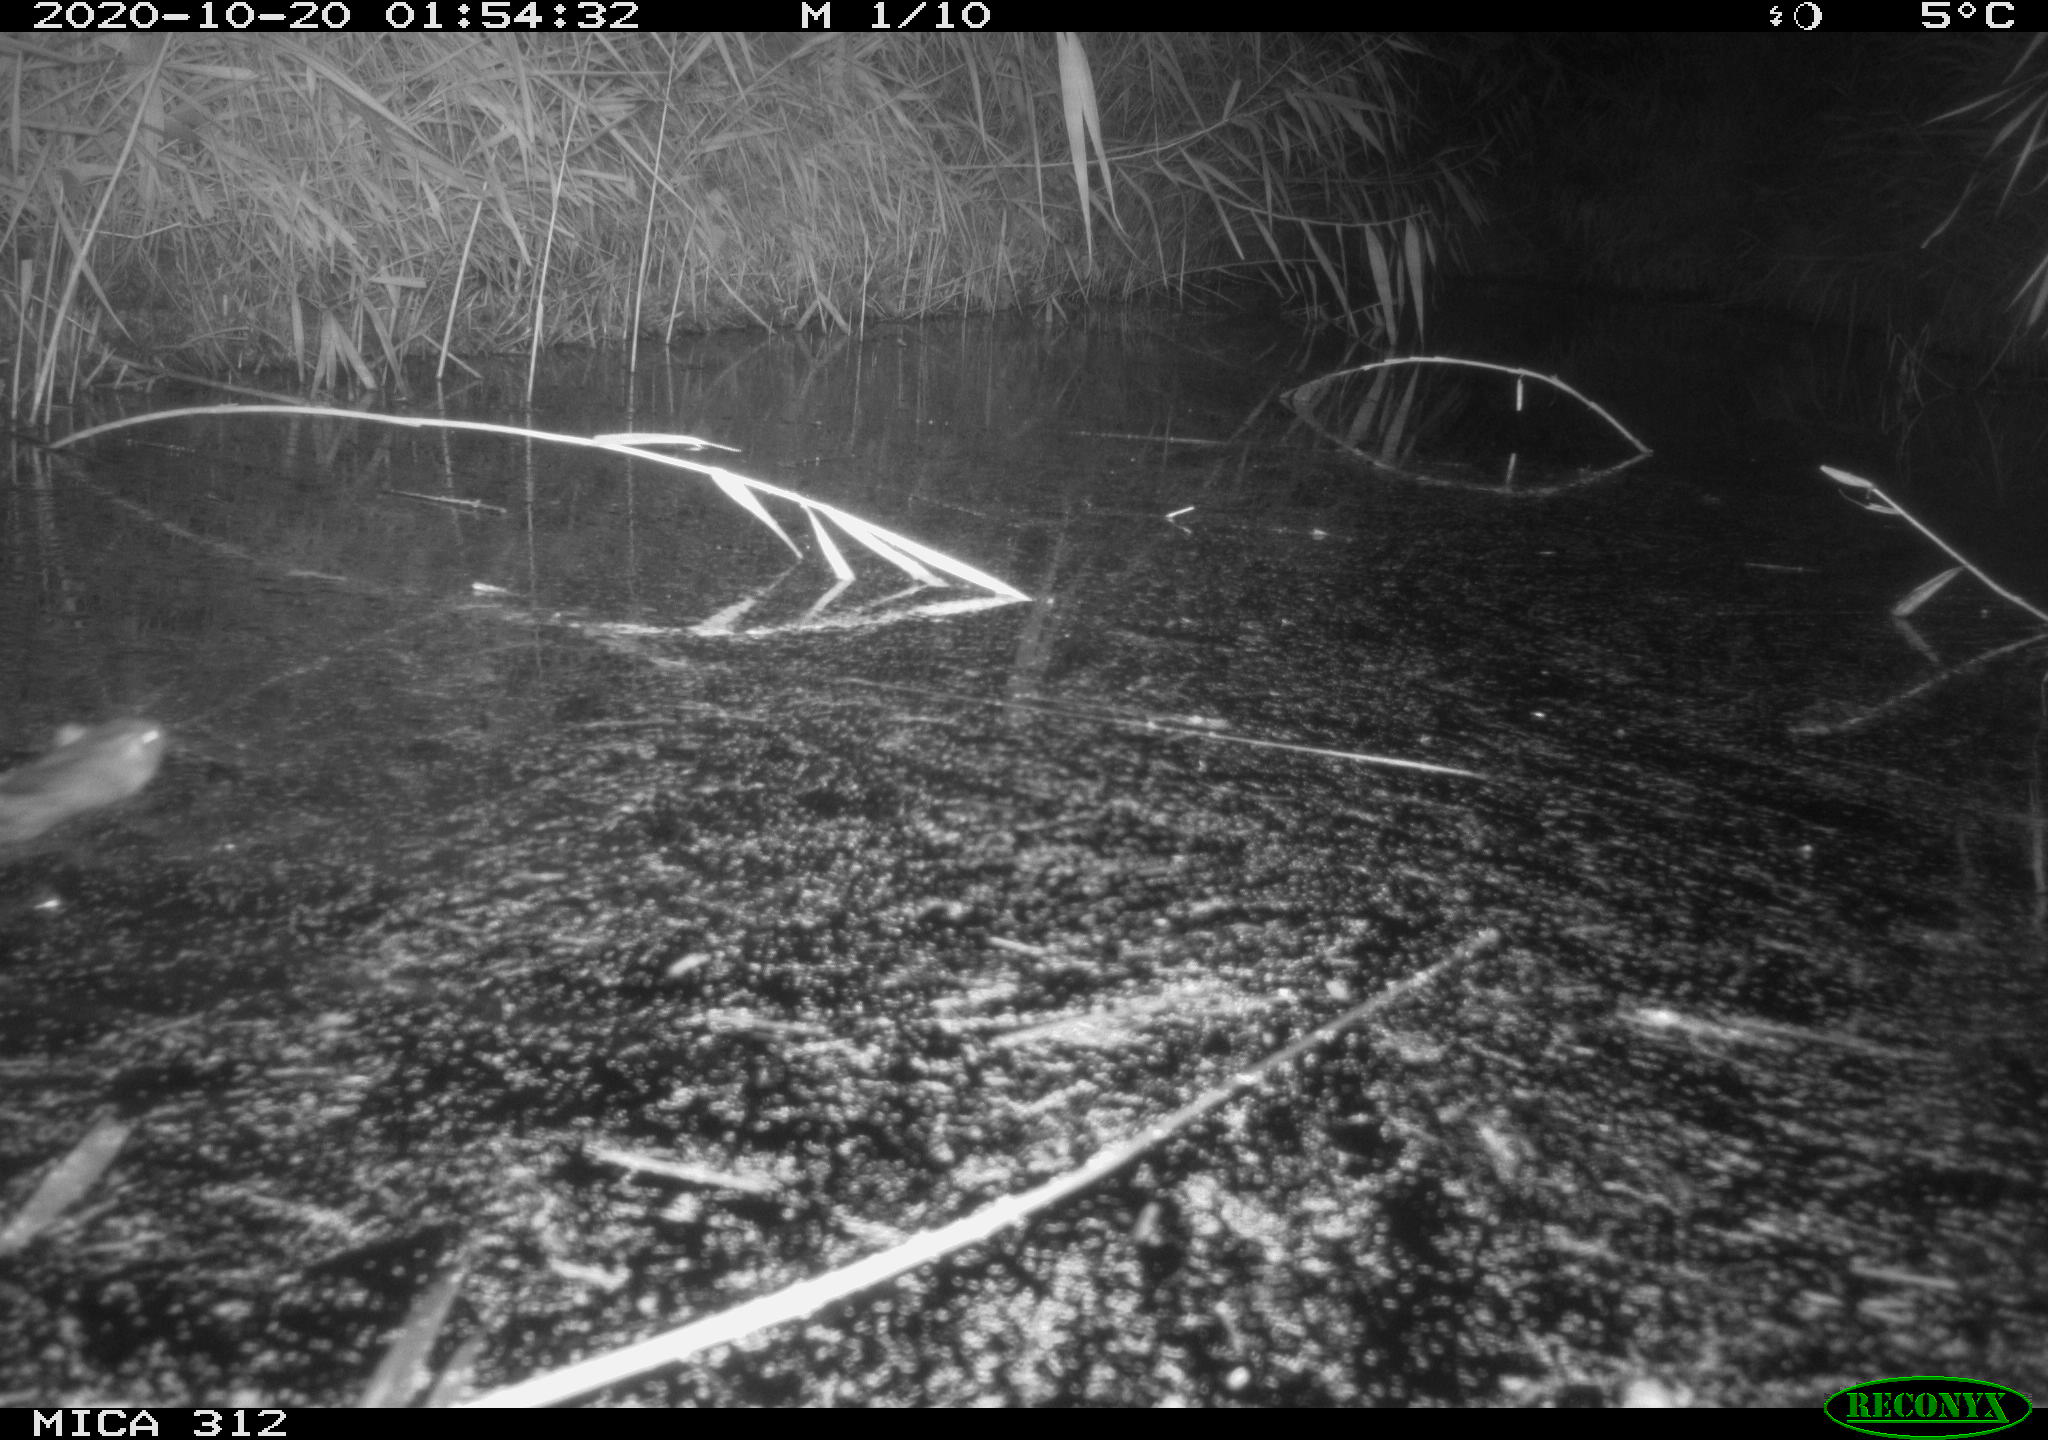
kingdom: Animalia
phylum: Chordata
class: Mammalia
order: Rodentia
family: Muridae
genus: Rattus
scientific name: Rattus norvegicus
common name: Brown rat
